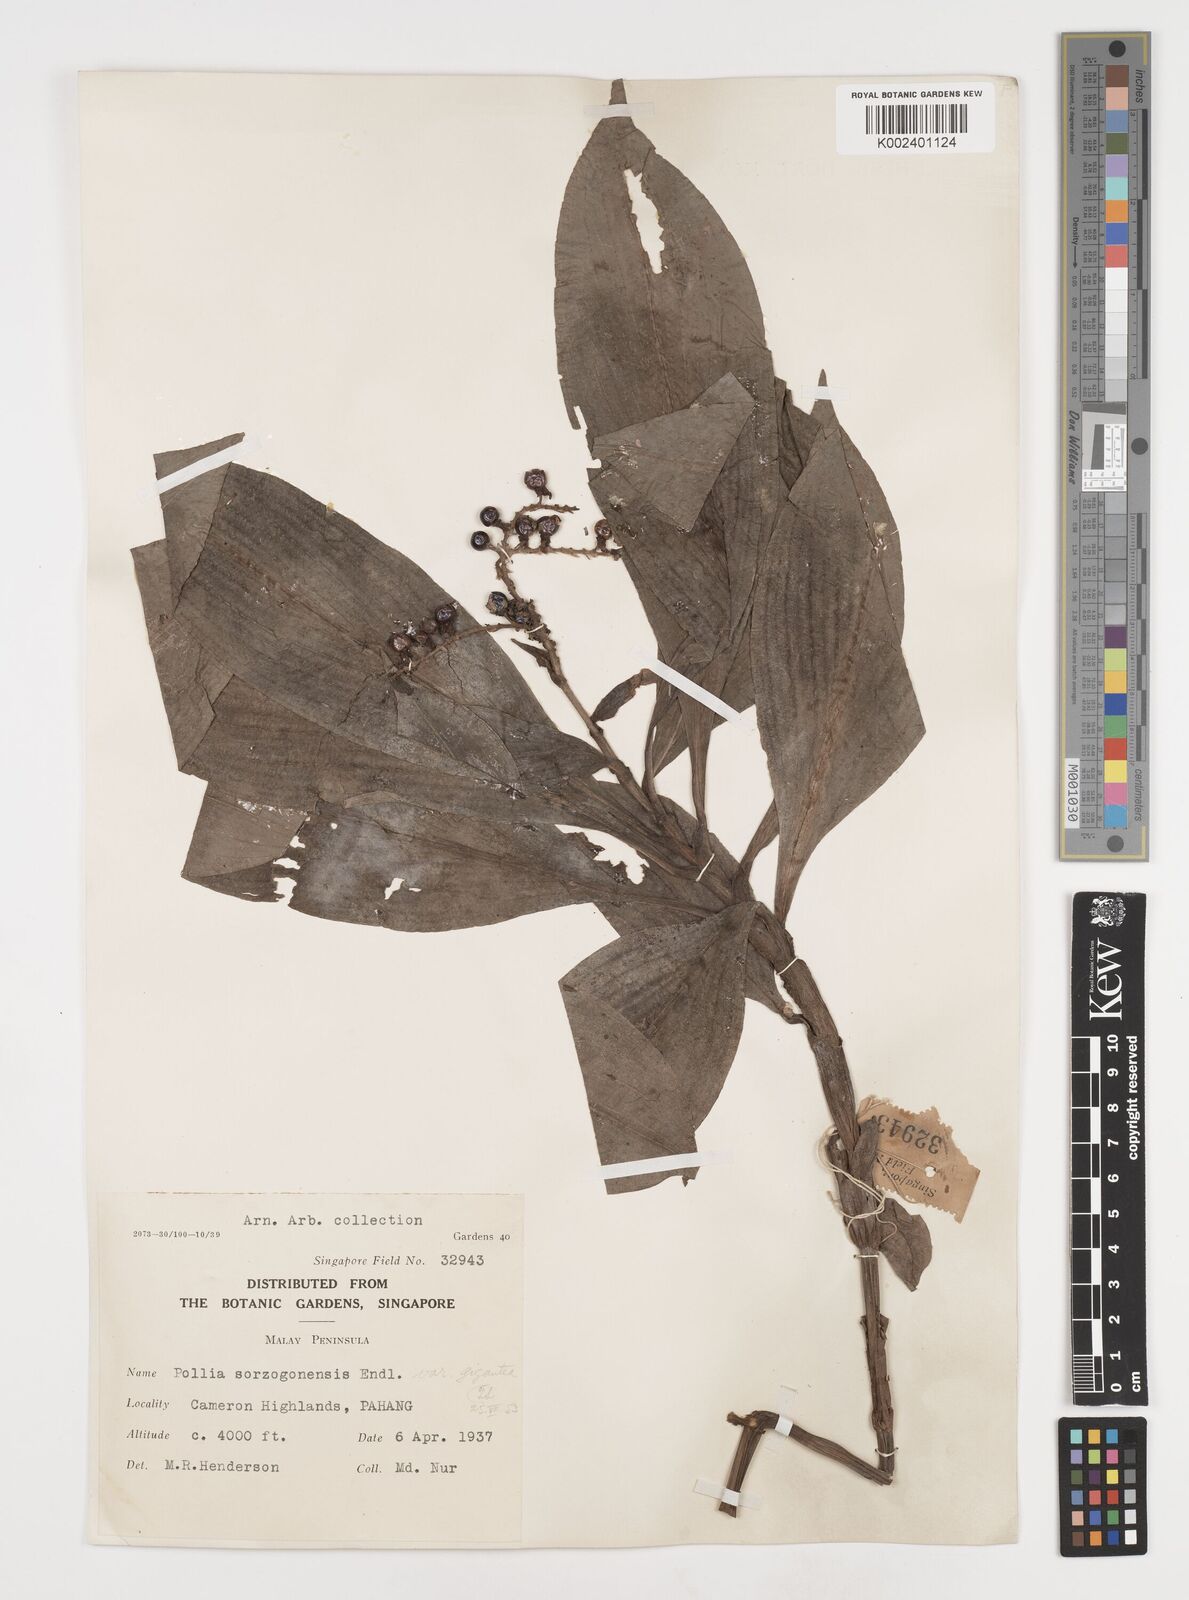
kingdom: Plantae
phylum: Tracheophyta
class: Liliopsida
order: Commelinales
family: Commelinaceae
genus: Pollia
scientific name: Pollia thyrsiflora
